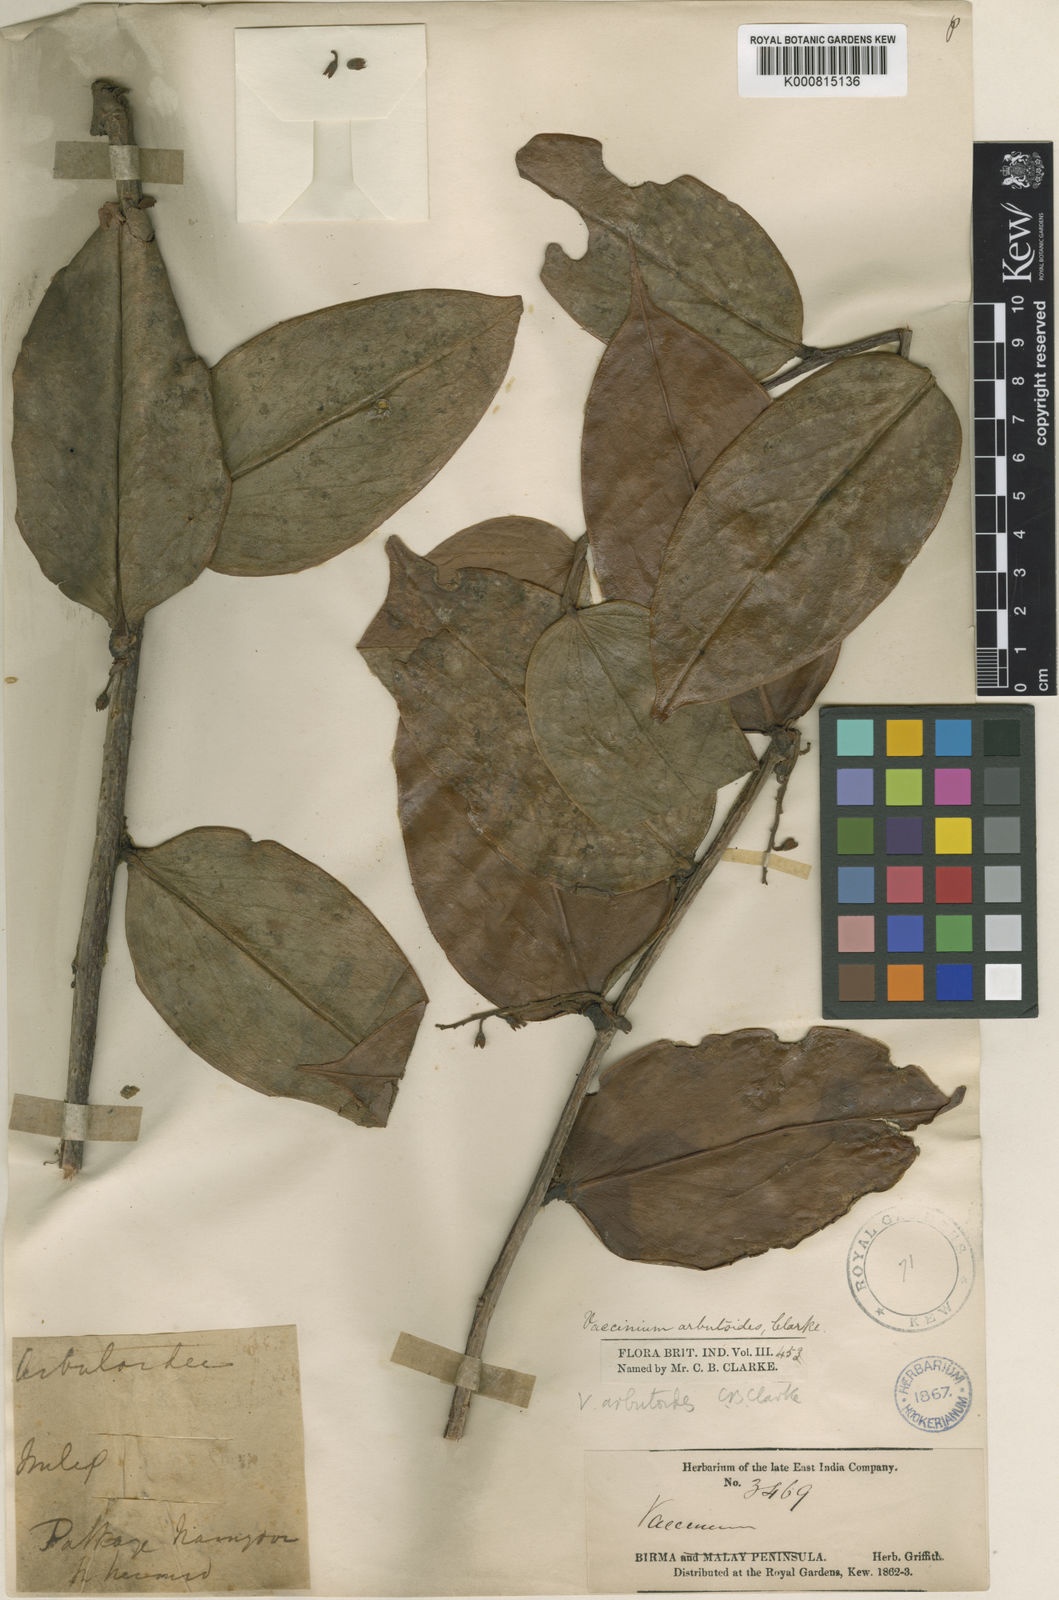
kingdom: Plantae
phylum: Tracheophyta
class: Magnoliopsida
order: Ericales
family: Ericaceae
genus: Vaccinium
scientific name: Vaccinium arbutoides
